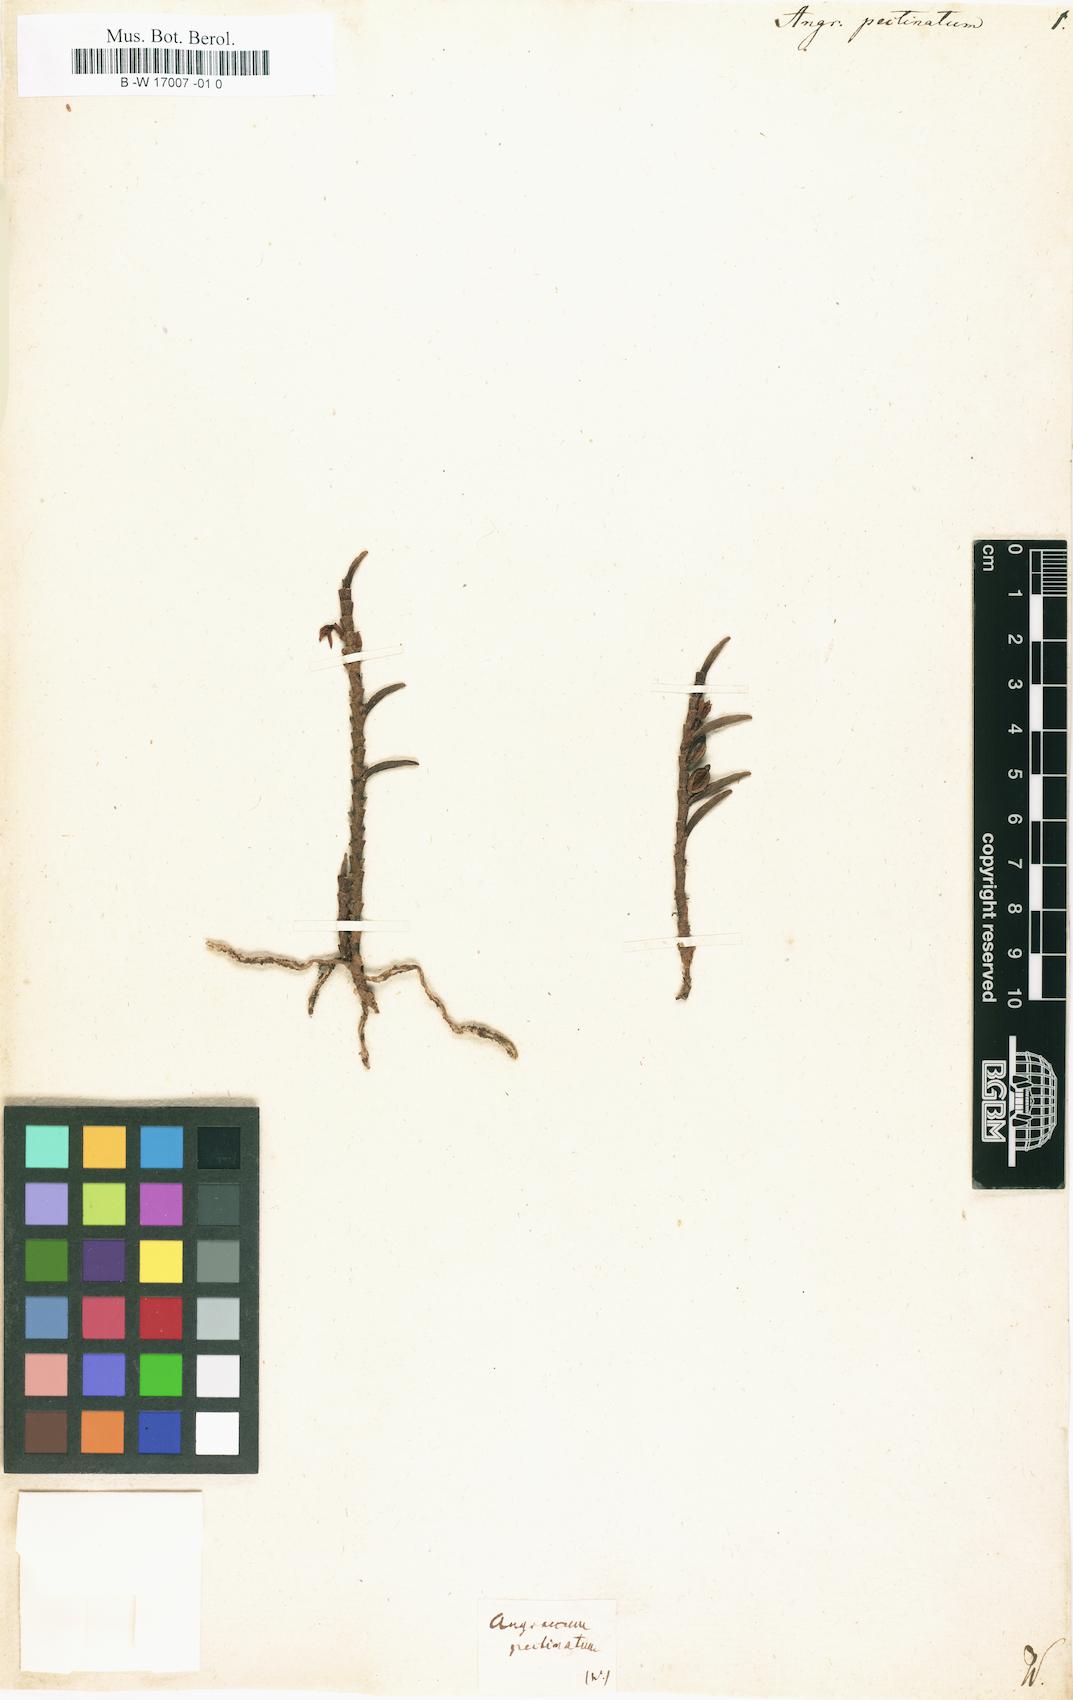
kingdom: Plantae
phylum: Tracheophyta
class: Liliopsida
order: Asparagales
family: Orchidaceae
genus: Angraecum
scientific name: Angraecum pectinatum
